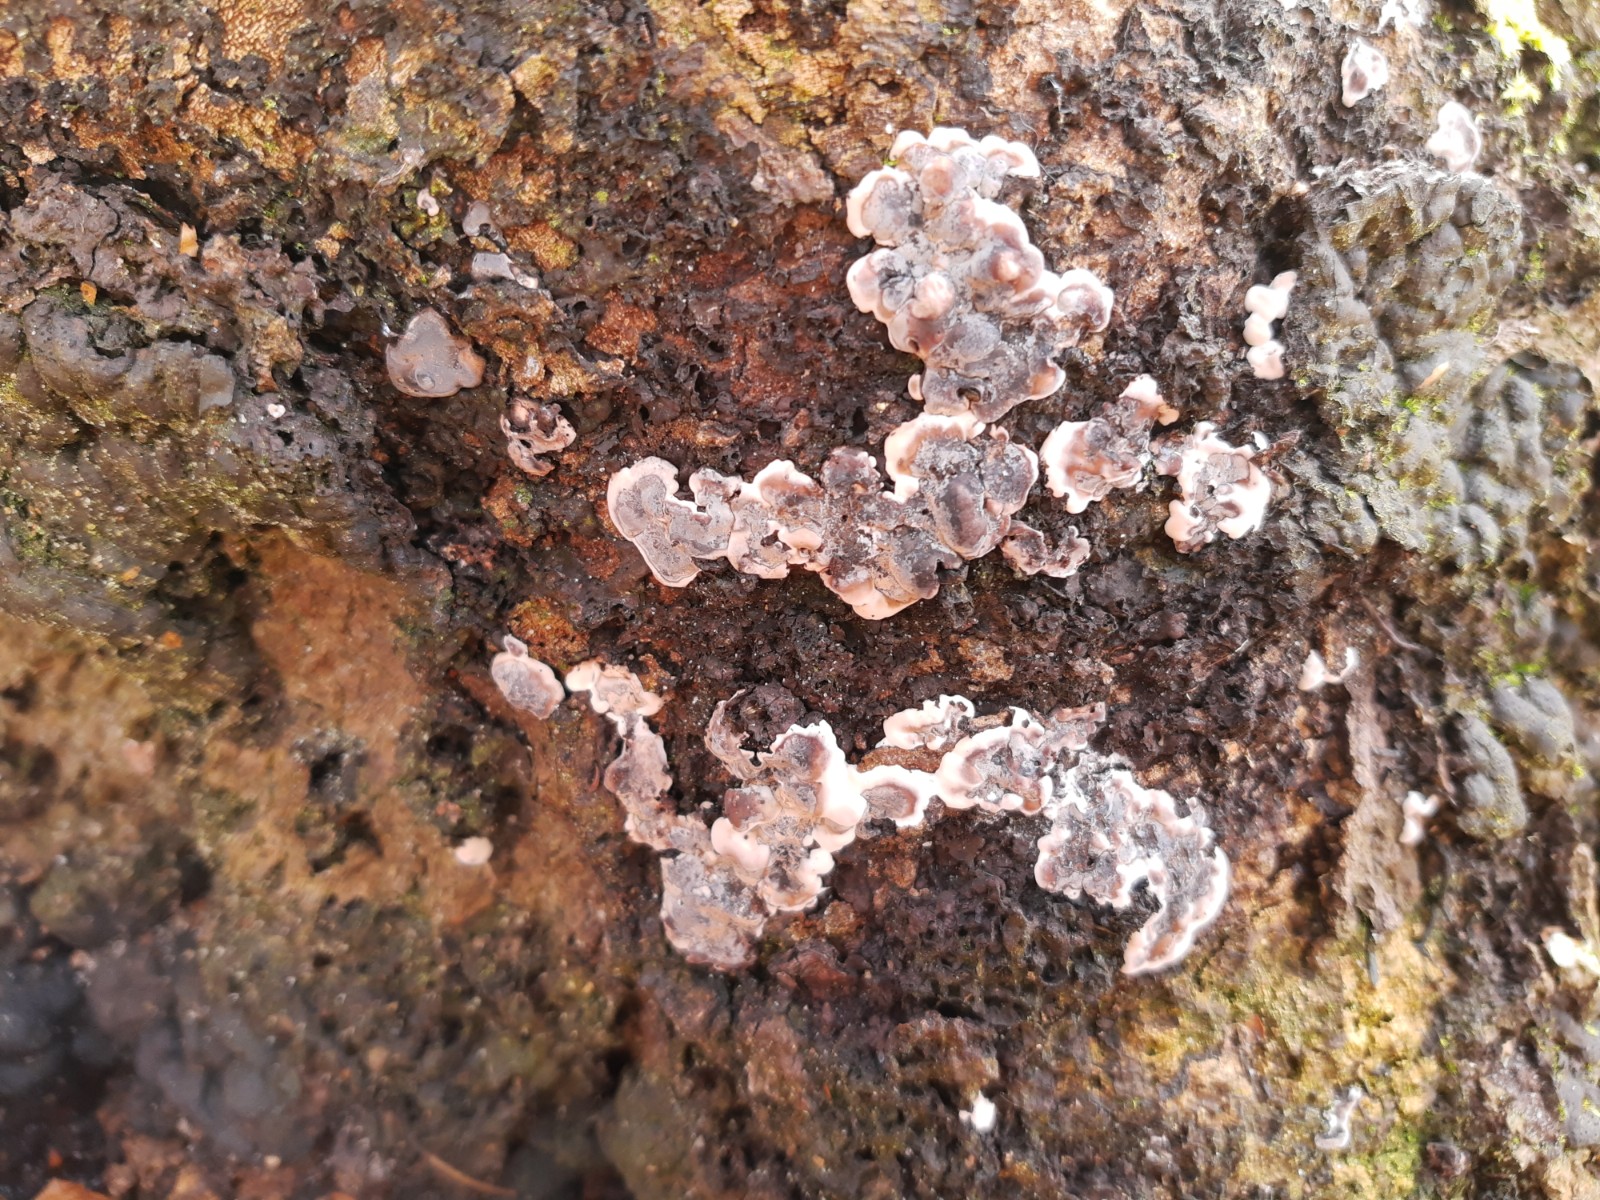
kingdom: Fungi
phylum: Ascomycota
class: Sordariomycetes
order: Xylariales
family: Xylariaceae
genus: Kretzschmaria
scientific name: Kretzschmaria deusta
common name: stor kulsvamp
